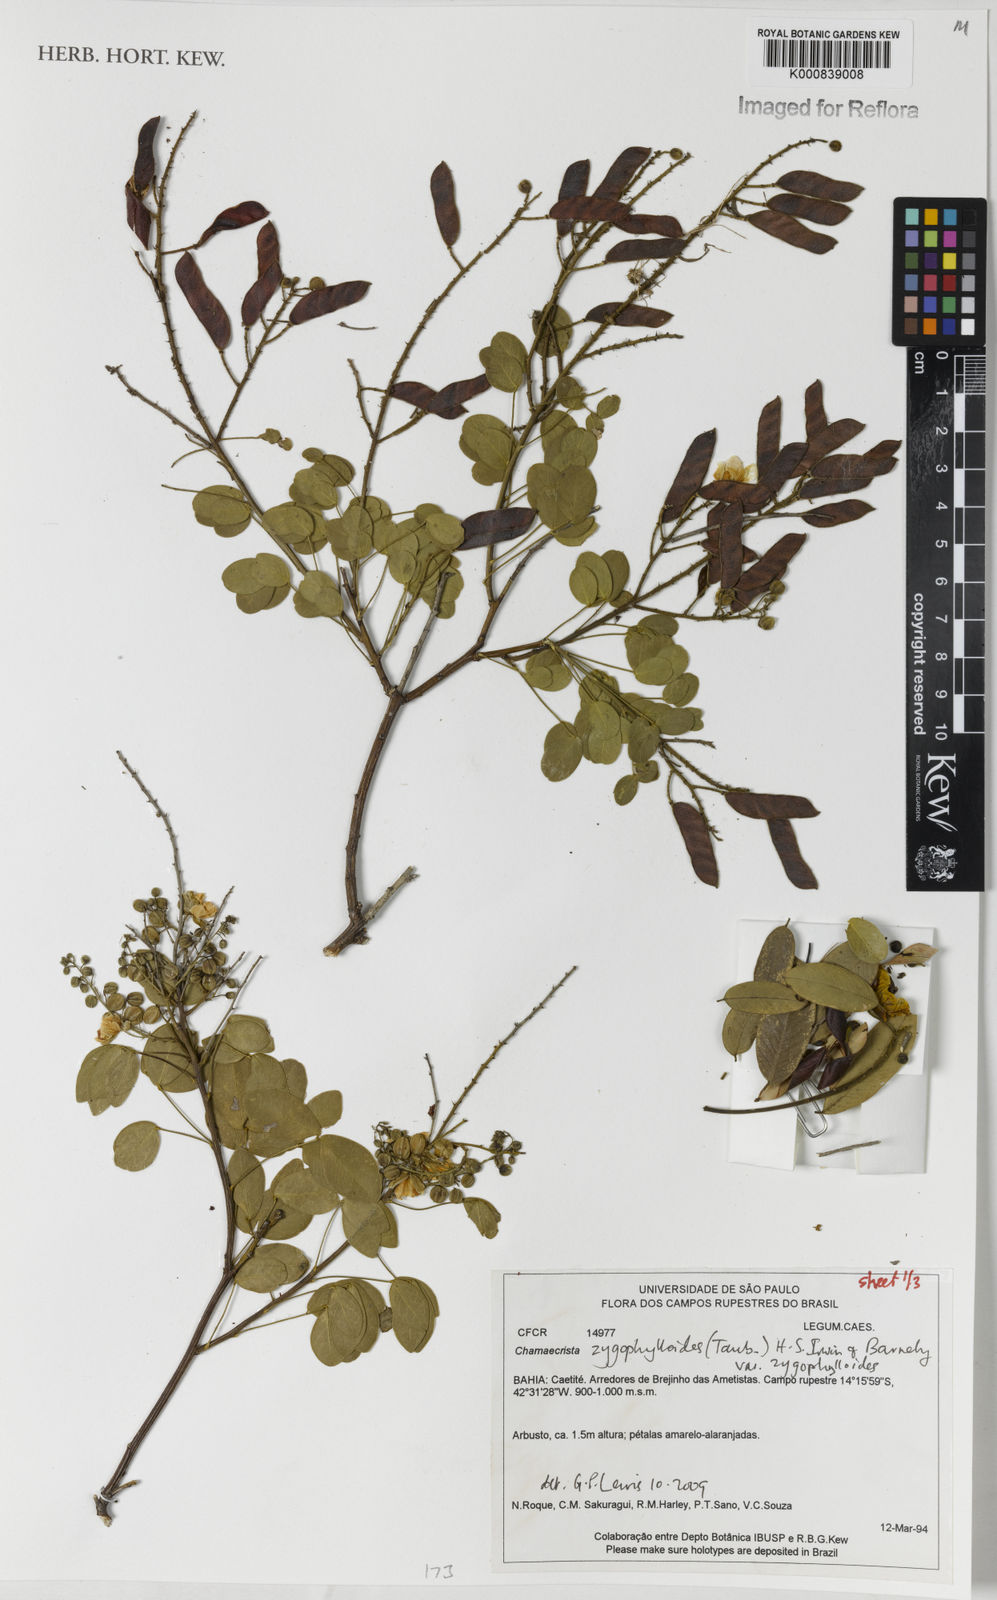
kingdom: Plantae
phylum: Tracheophyta
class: Magnoliopsida
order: Fabales
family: Fabaceae
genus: Chamaecrista
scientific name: Chamaecrista zygophylloides
